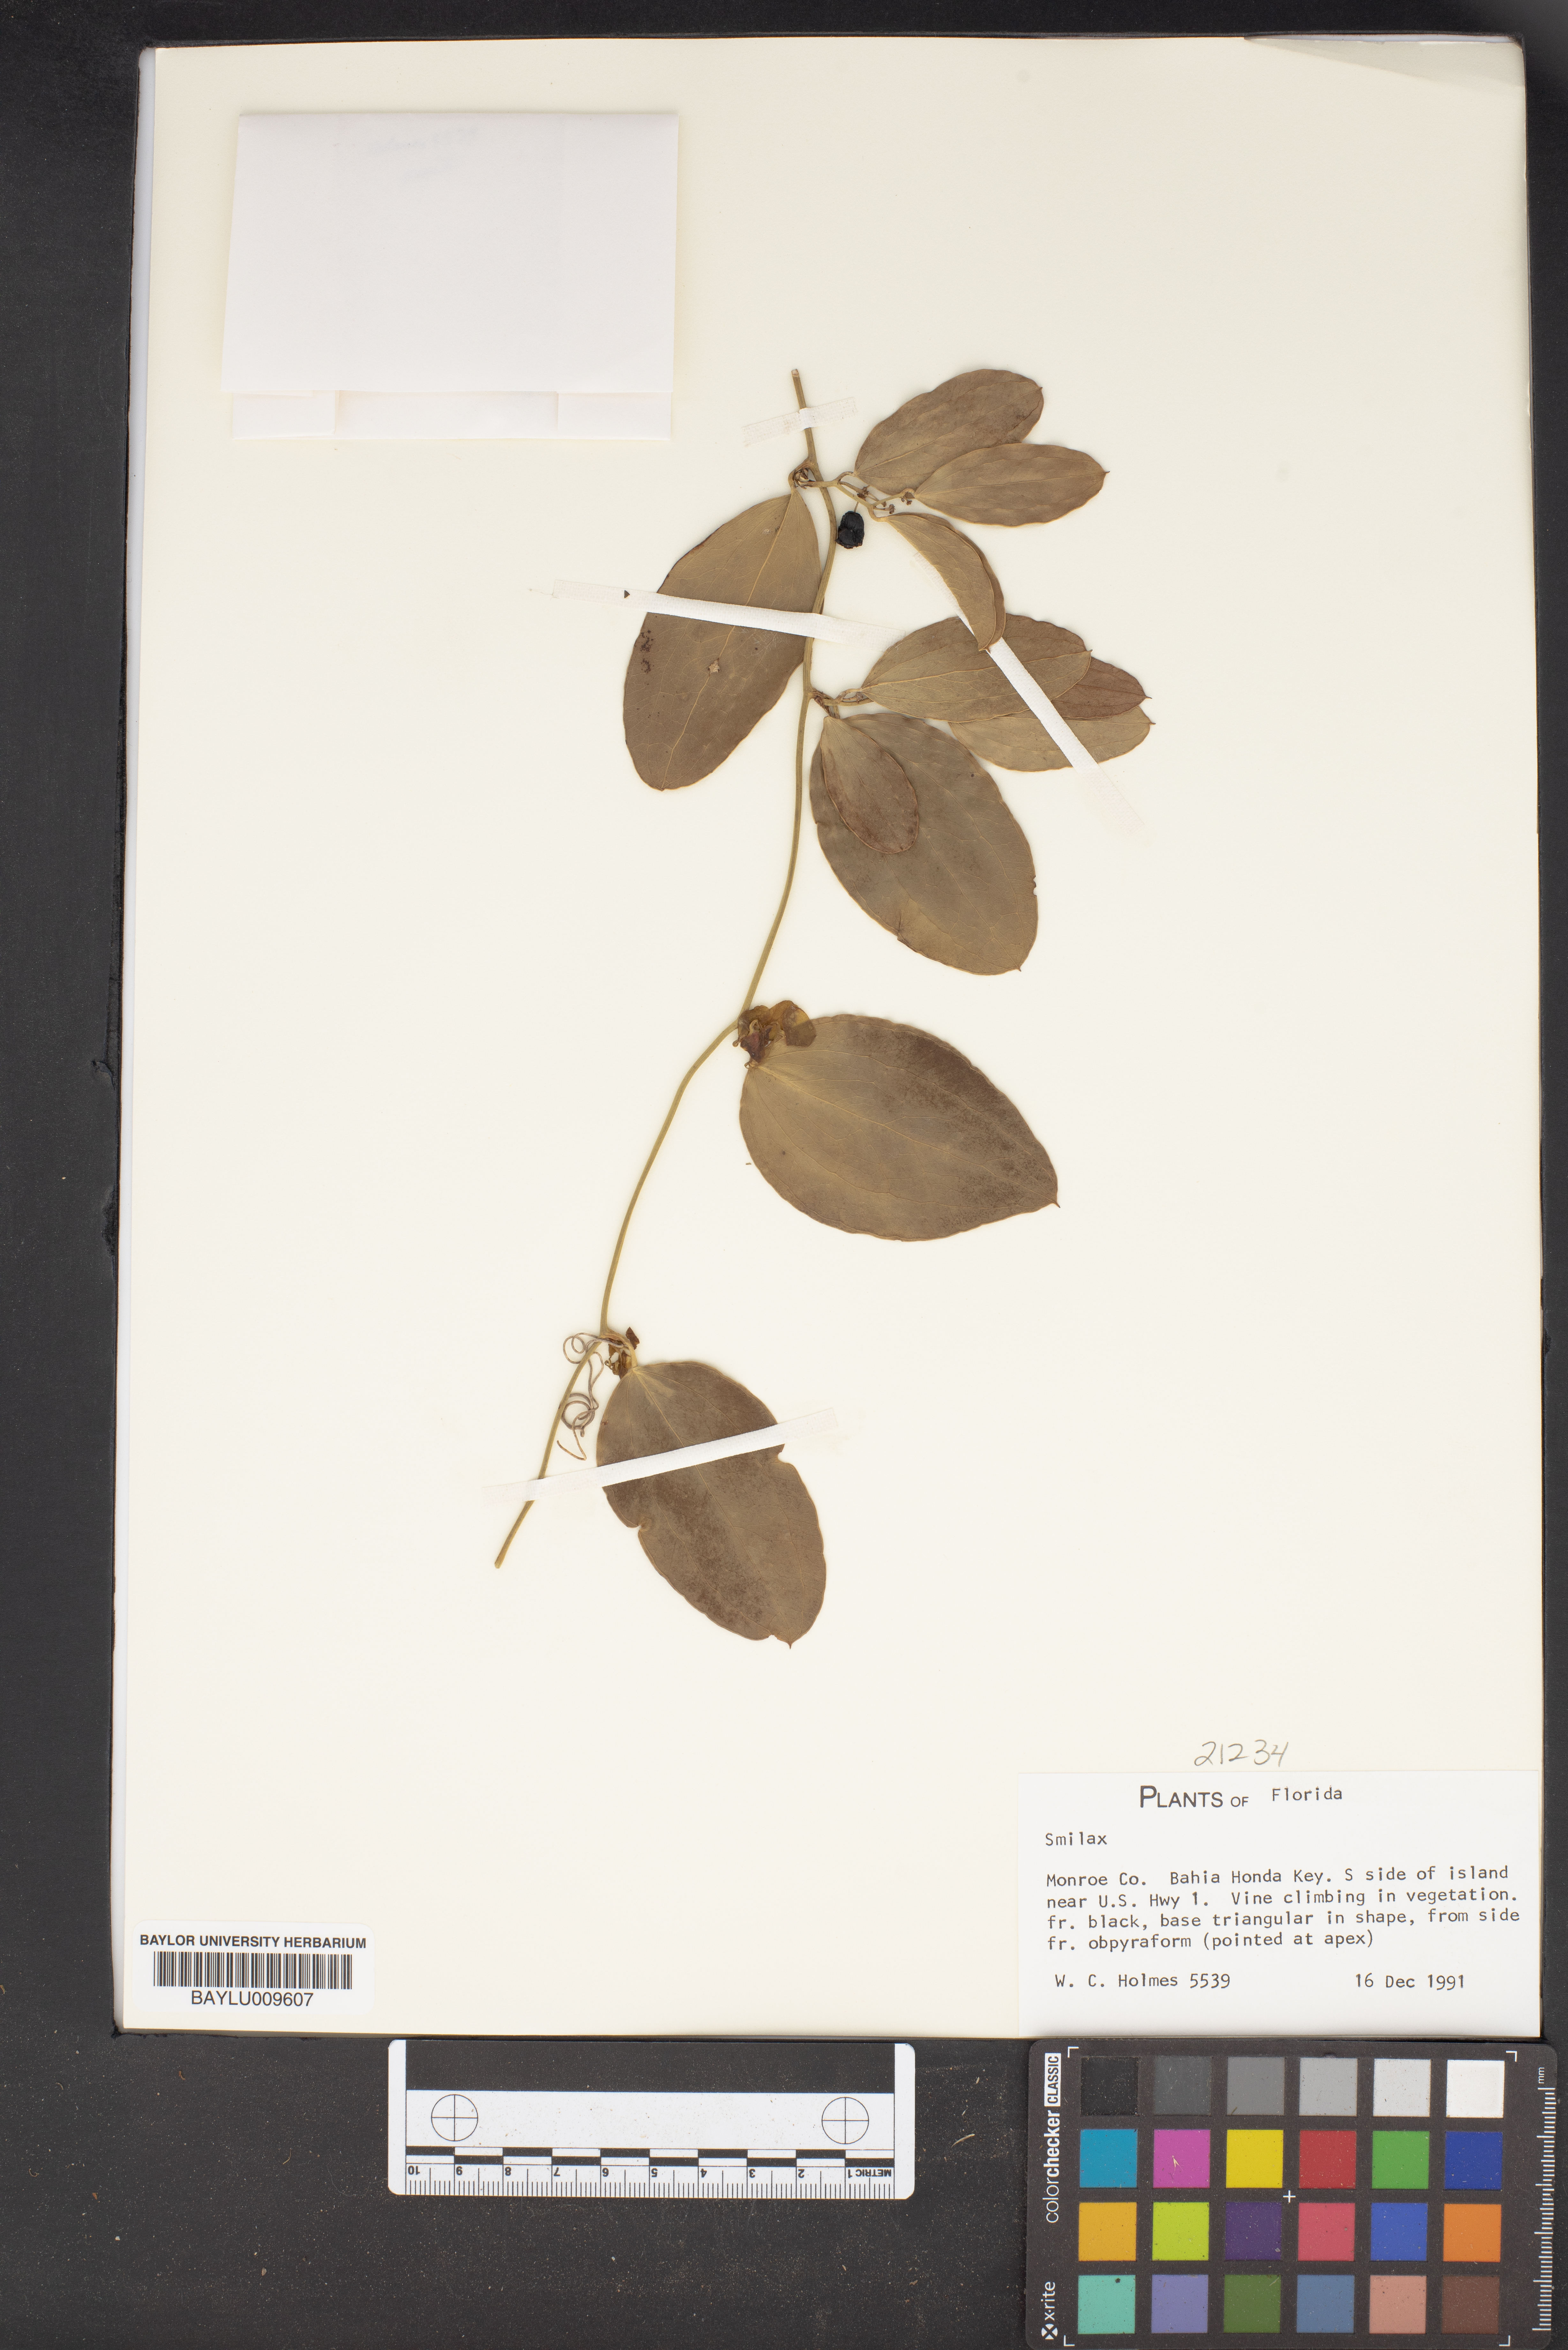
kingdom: Plantae
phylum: Tracheophyta
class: Liliopsida
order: Liliales
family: Smilacaceae
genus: Smilax
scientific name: Smilax
